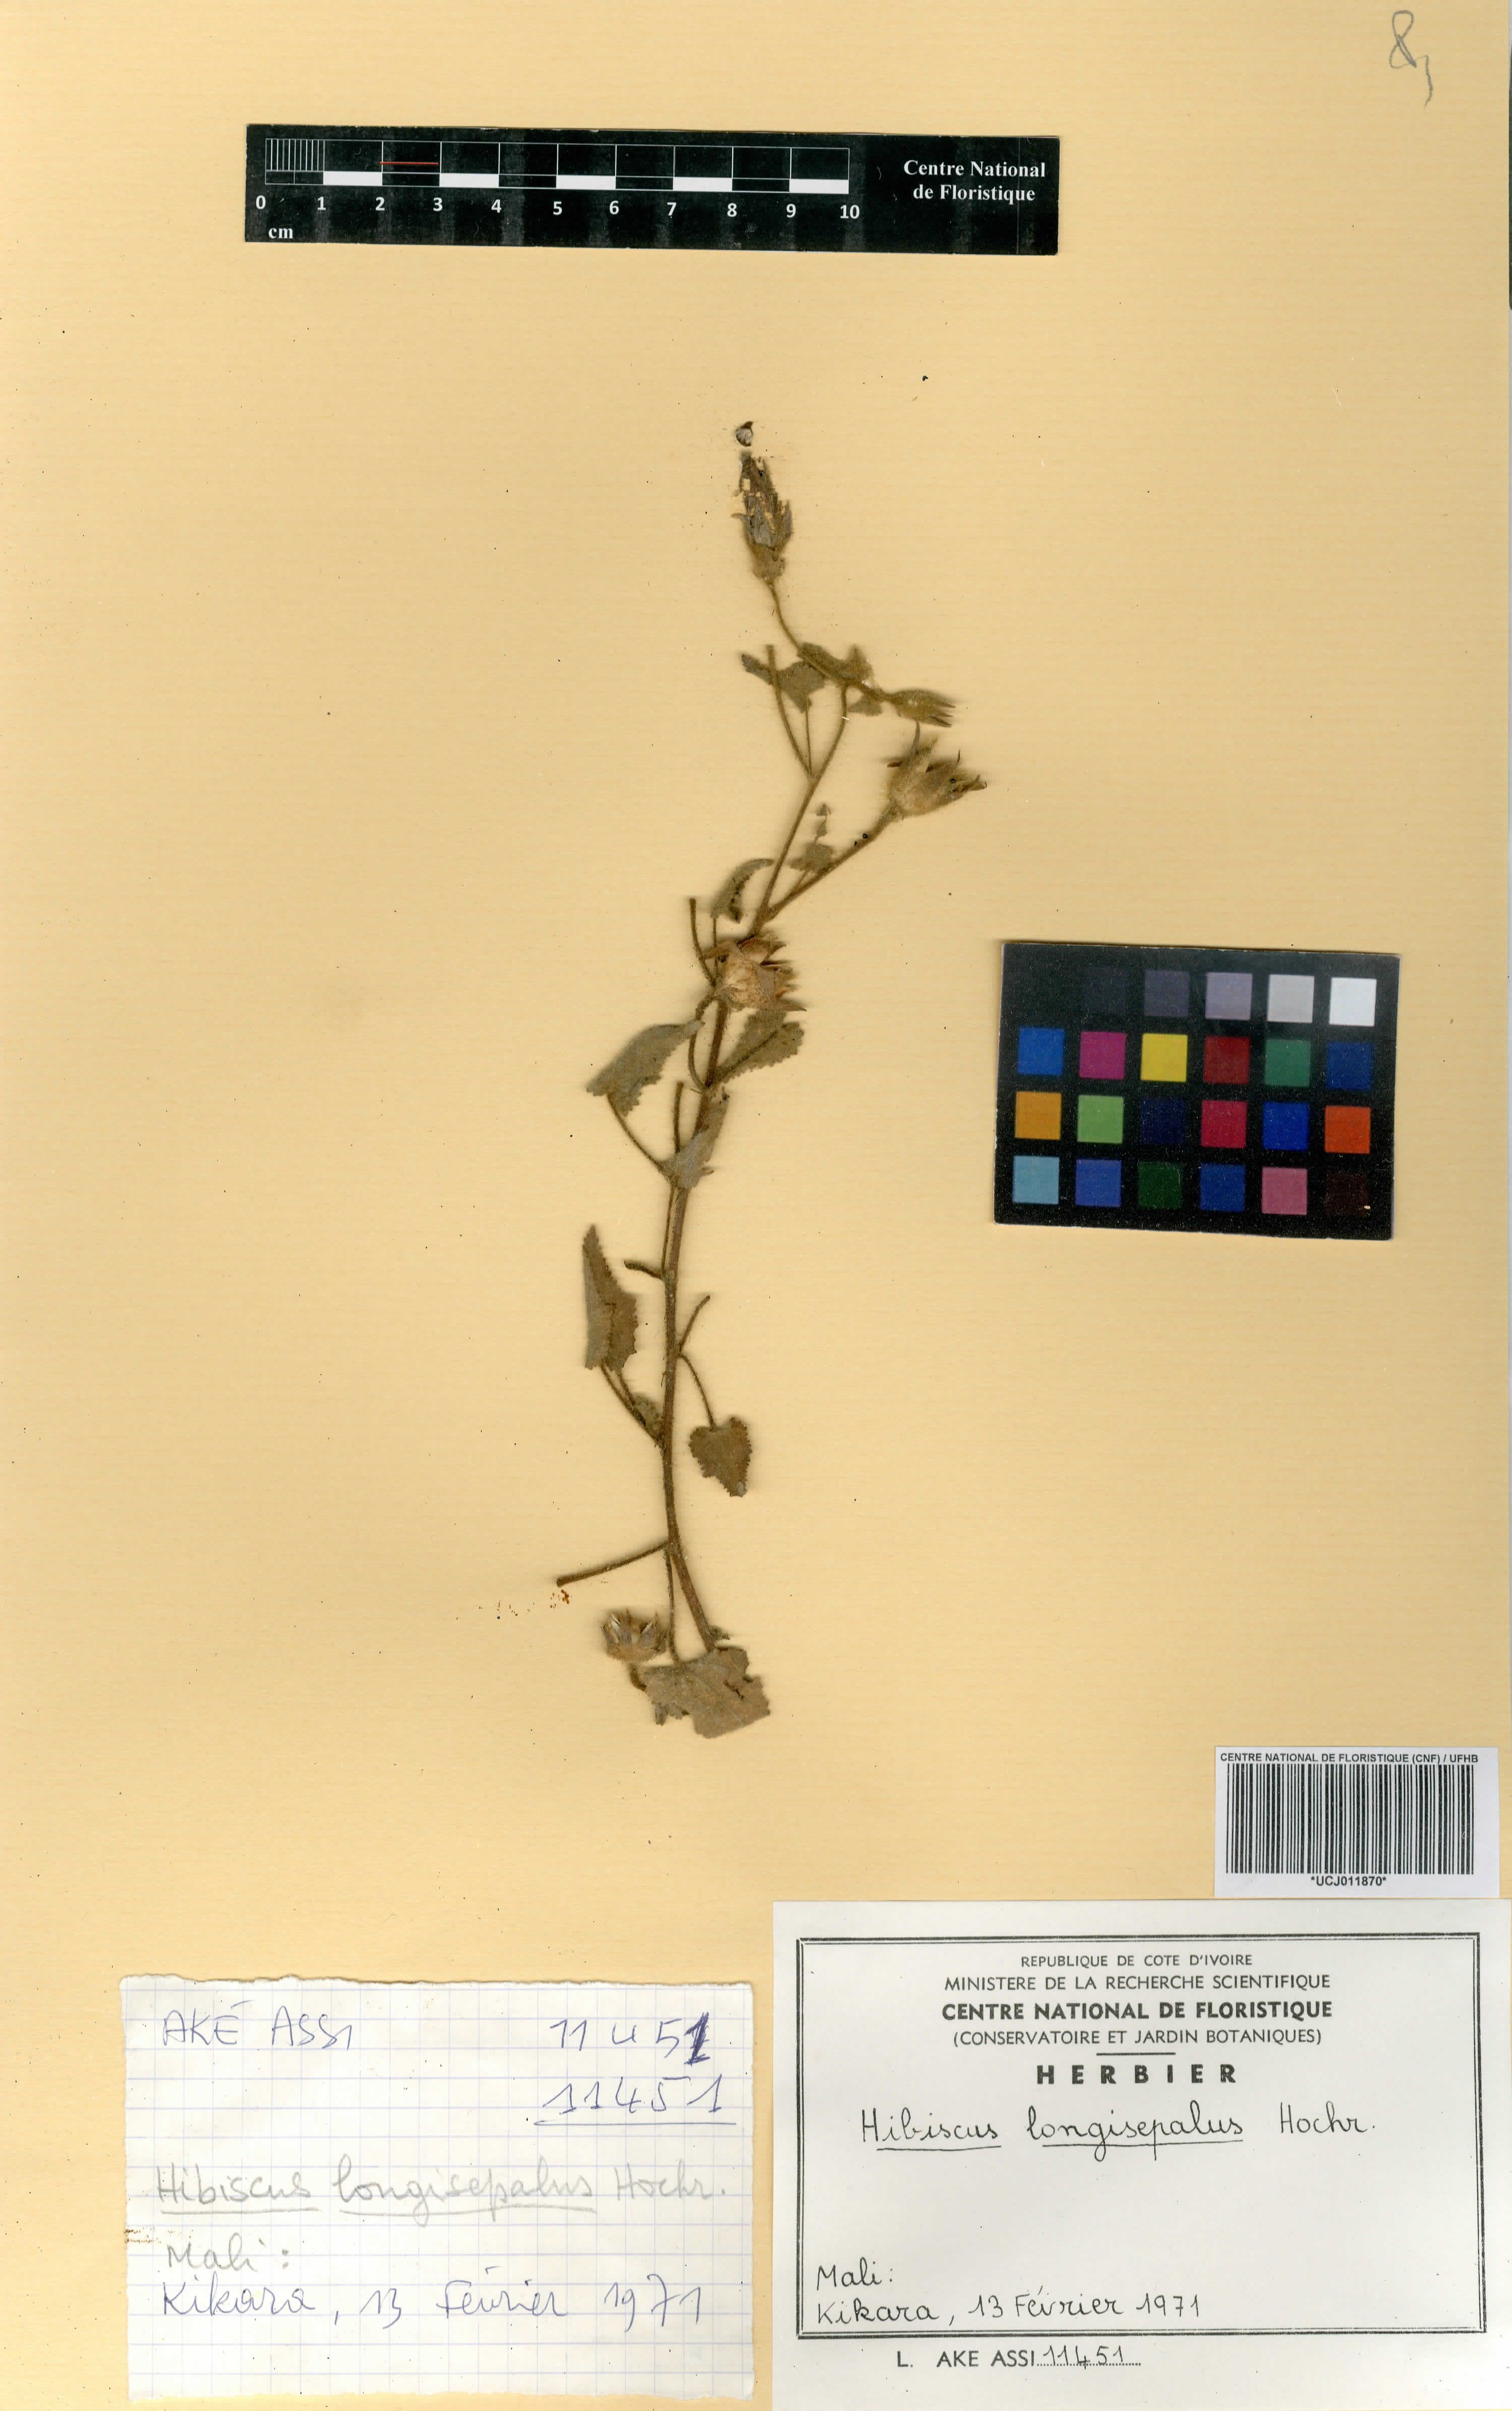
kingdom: Plantae
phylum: Tracheophyta
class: Magnoliopsida
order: Malvales
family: Malvaceae
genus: Hibiscus
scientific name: Hibiscus longisepalus
